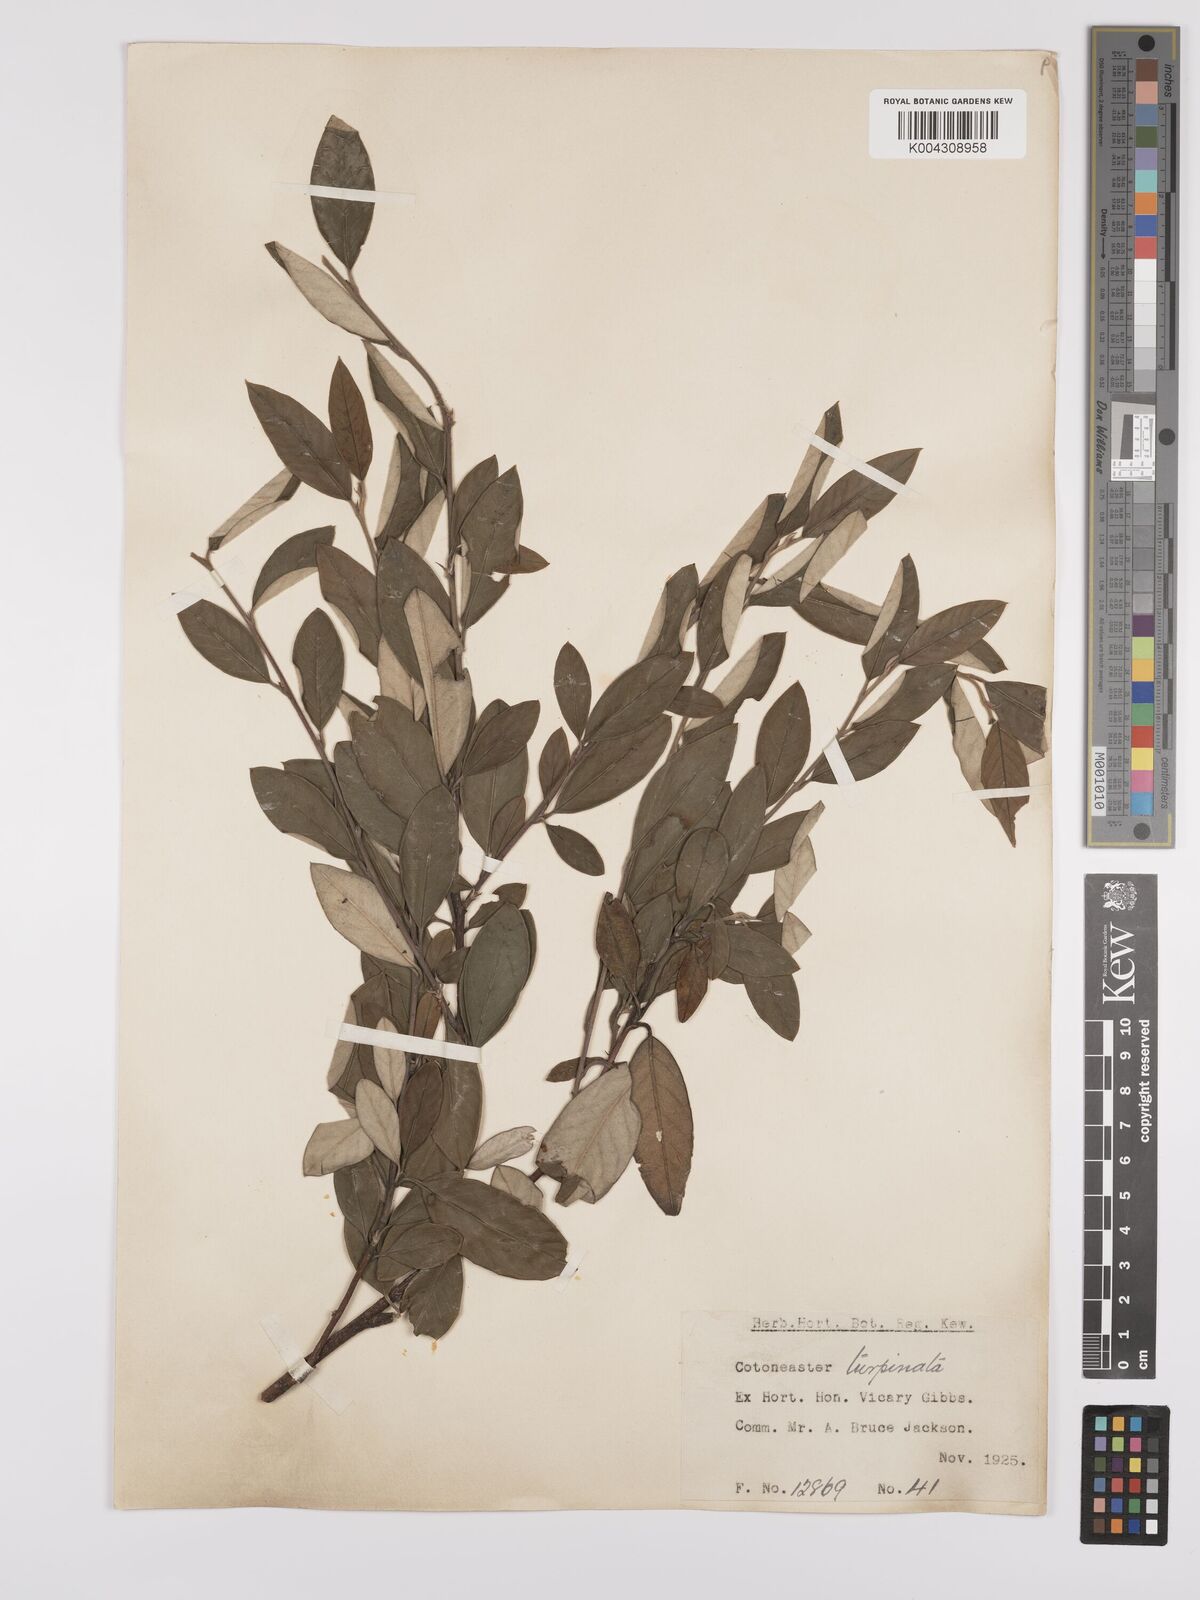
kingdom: Plantae
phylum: Tracheophyta
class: Magnoliopsida
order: Rosales
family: Rosaceae
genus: Cotoneaster
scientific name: Cotoneaster pannosus
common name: Silverleaf cotoneaster
